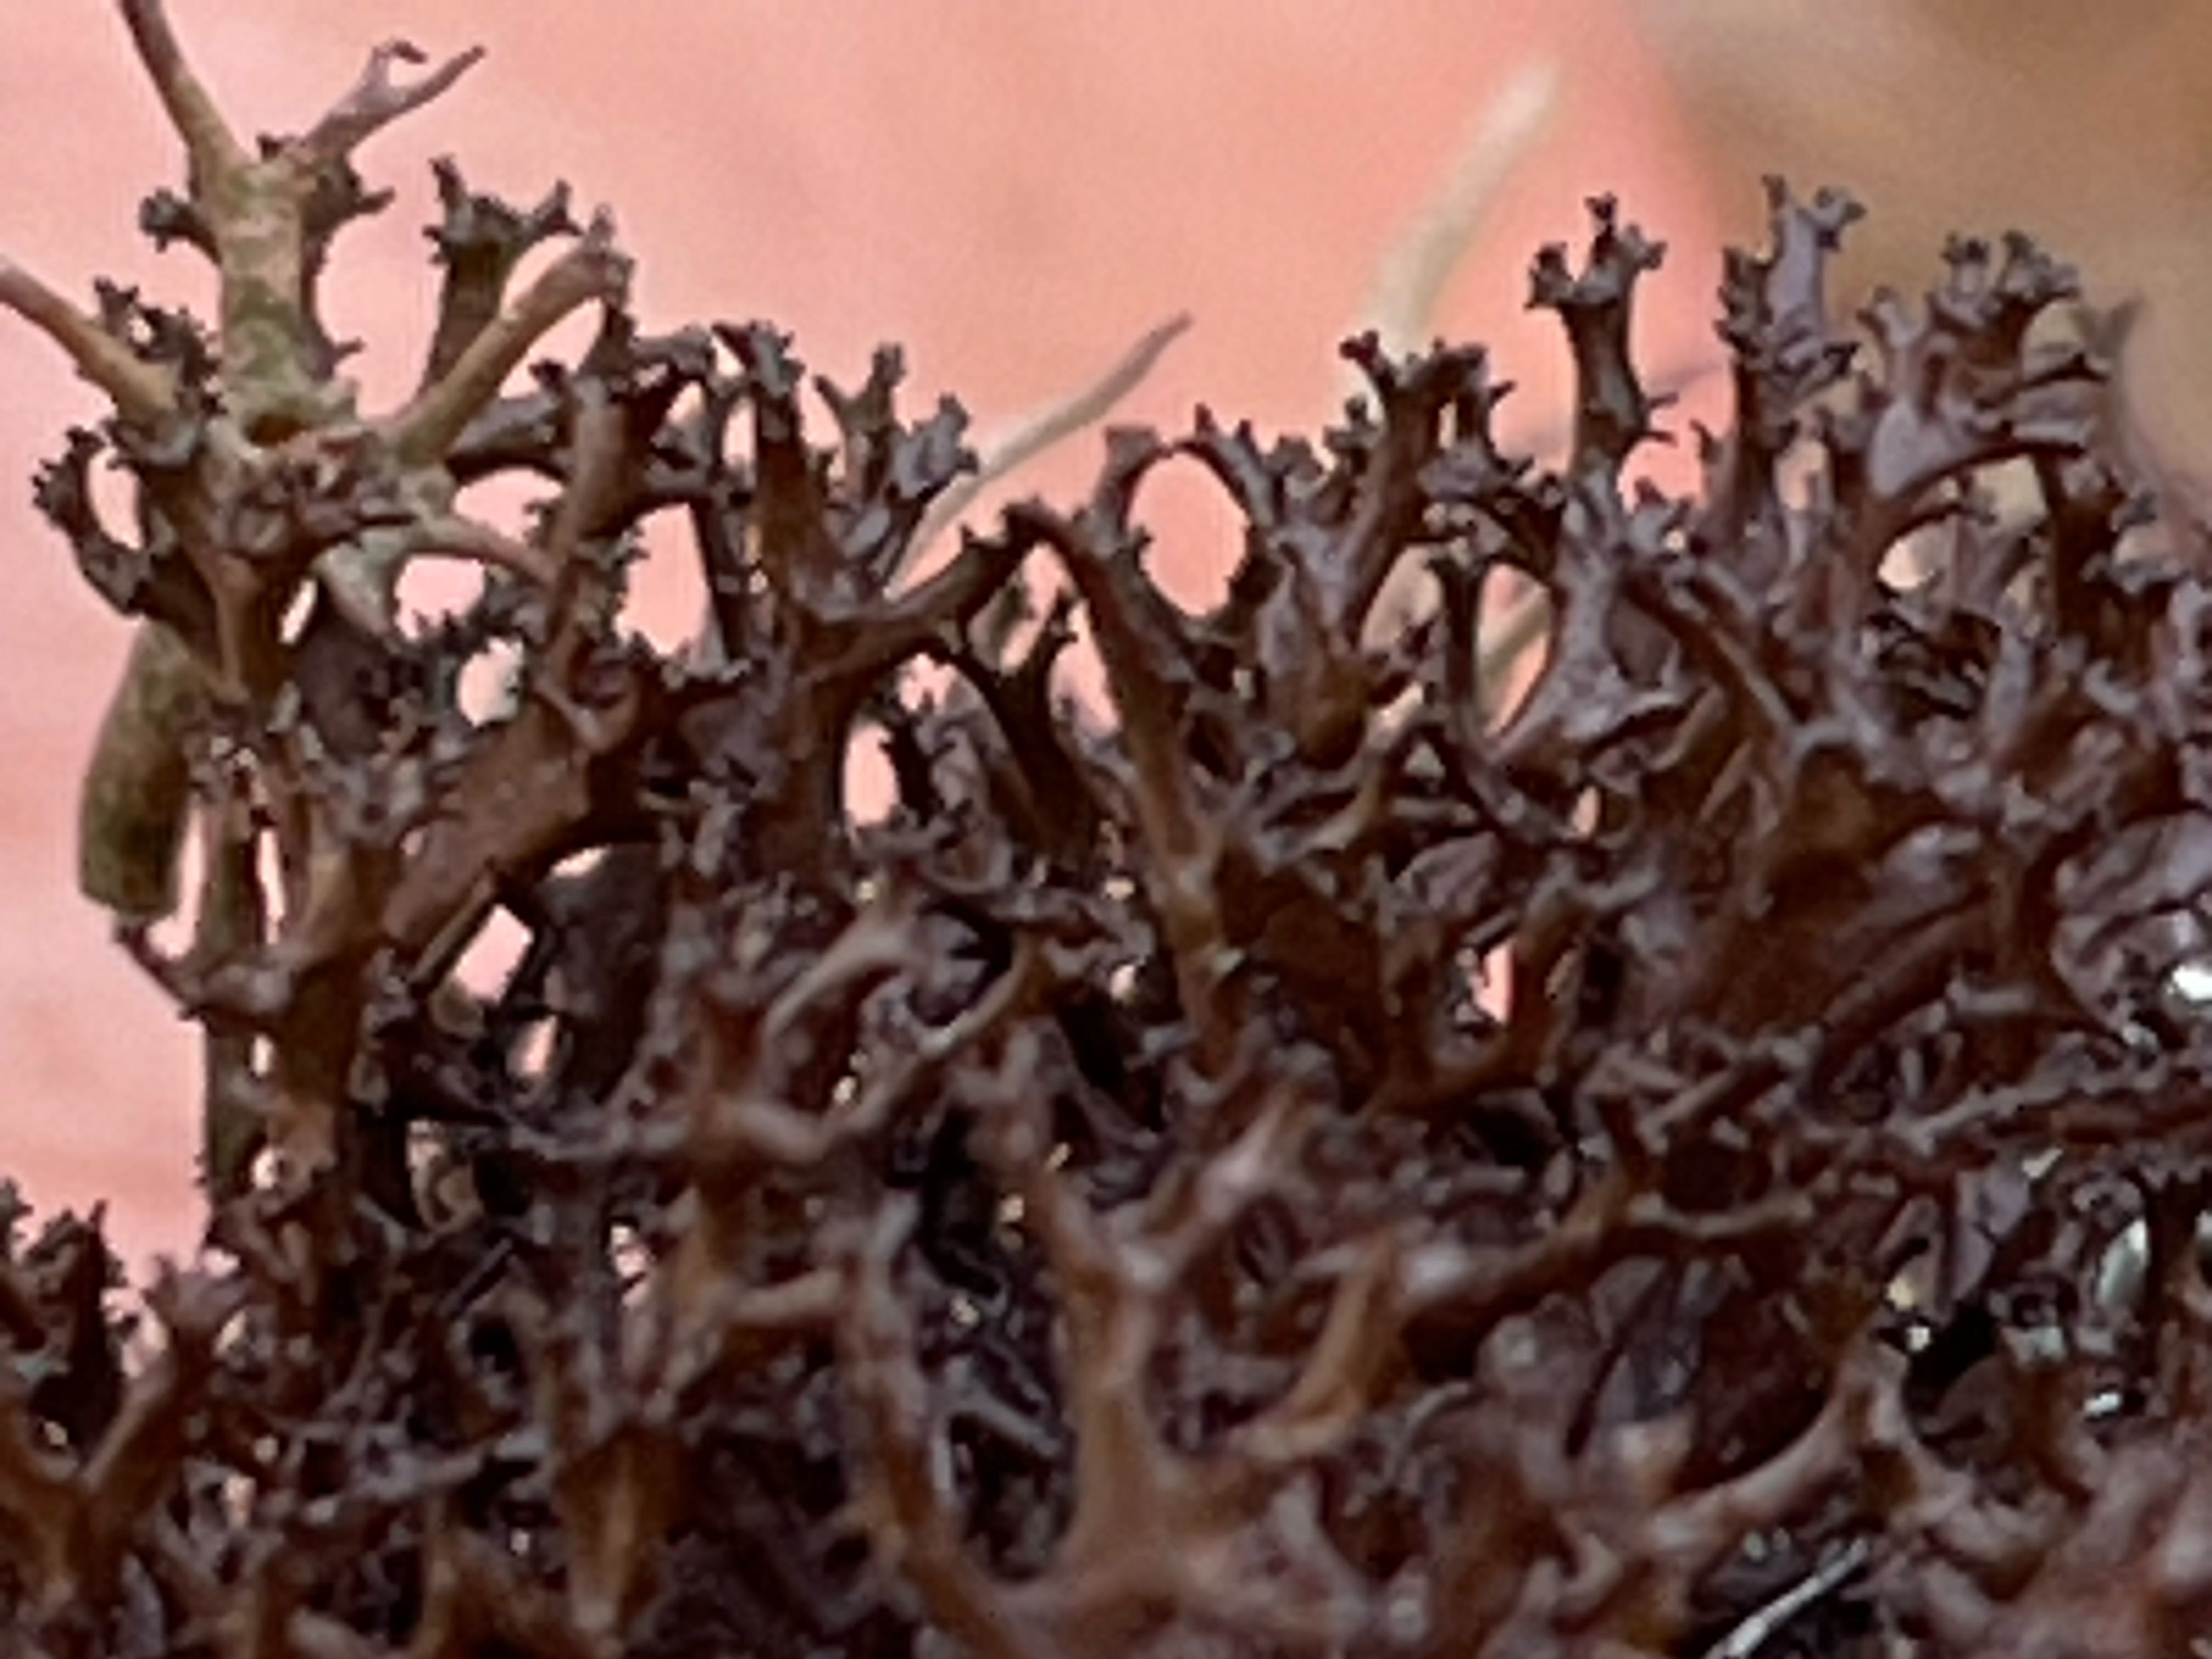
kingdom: Fungi
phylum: Ascomycota
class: Lecanoromycetes
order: Lecanorales
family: Parmeliaceae
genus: Cetraria
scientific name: Cetraria muricata
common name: tue-tjørnelav
